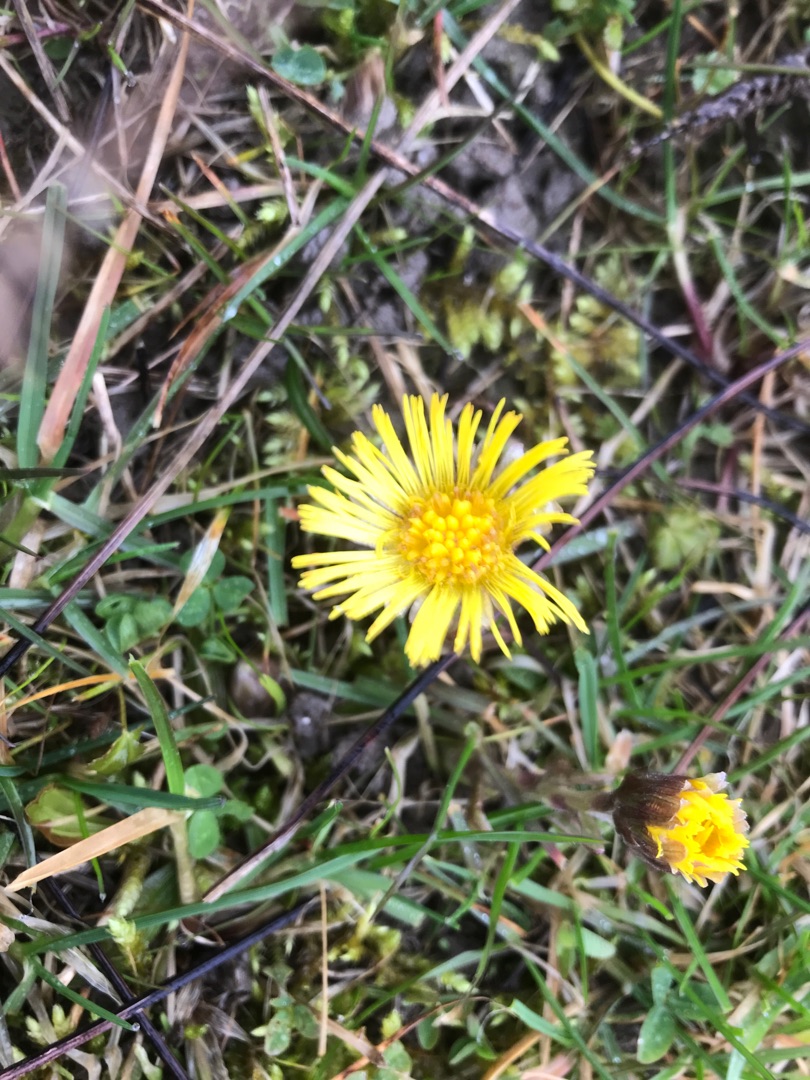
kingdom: Plantae
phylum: Tracheophyta
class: Magnoliopsida
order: Asterales
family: Asteraceae
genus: Tussilago
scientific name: Tussilago farfara
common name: Følfod
